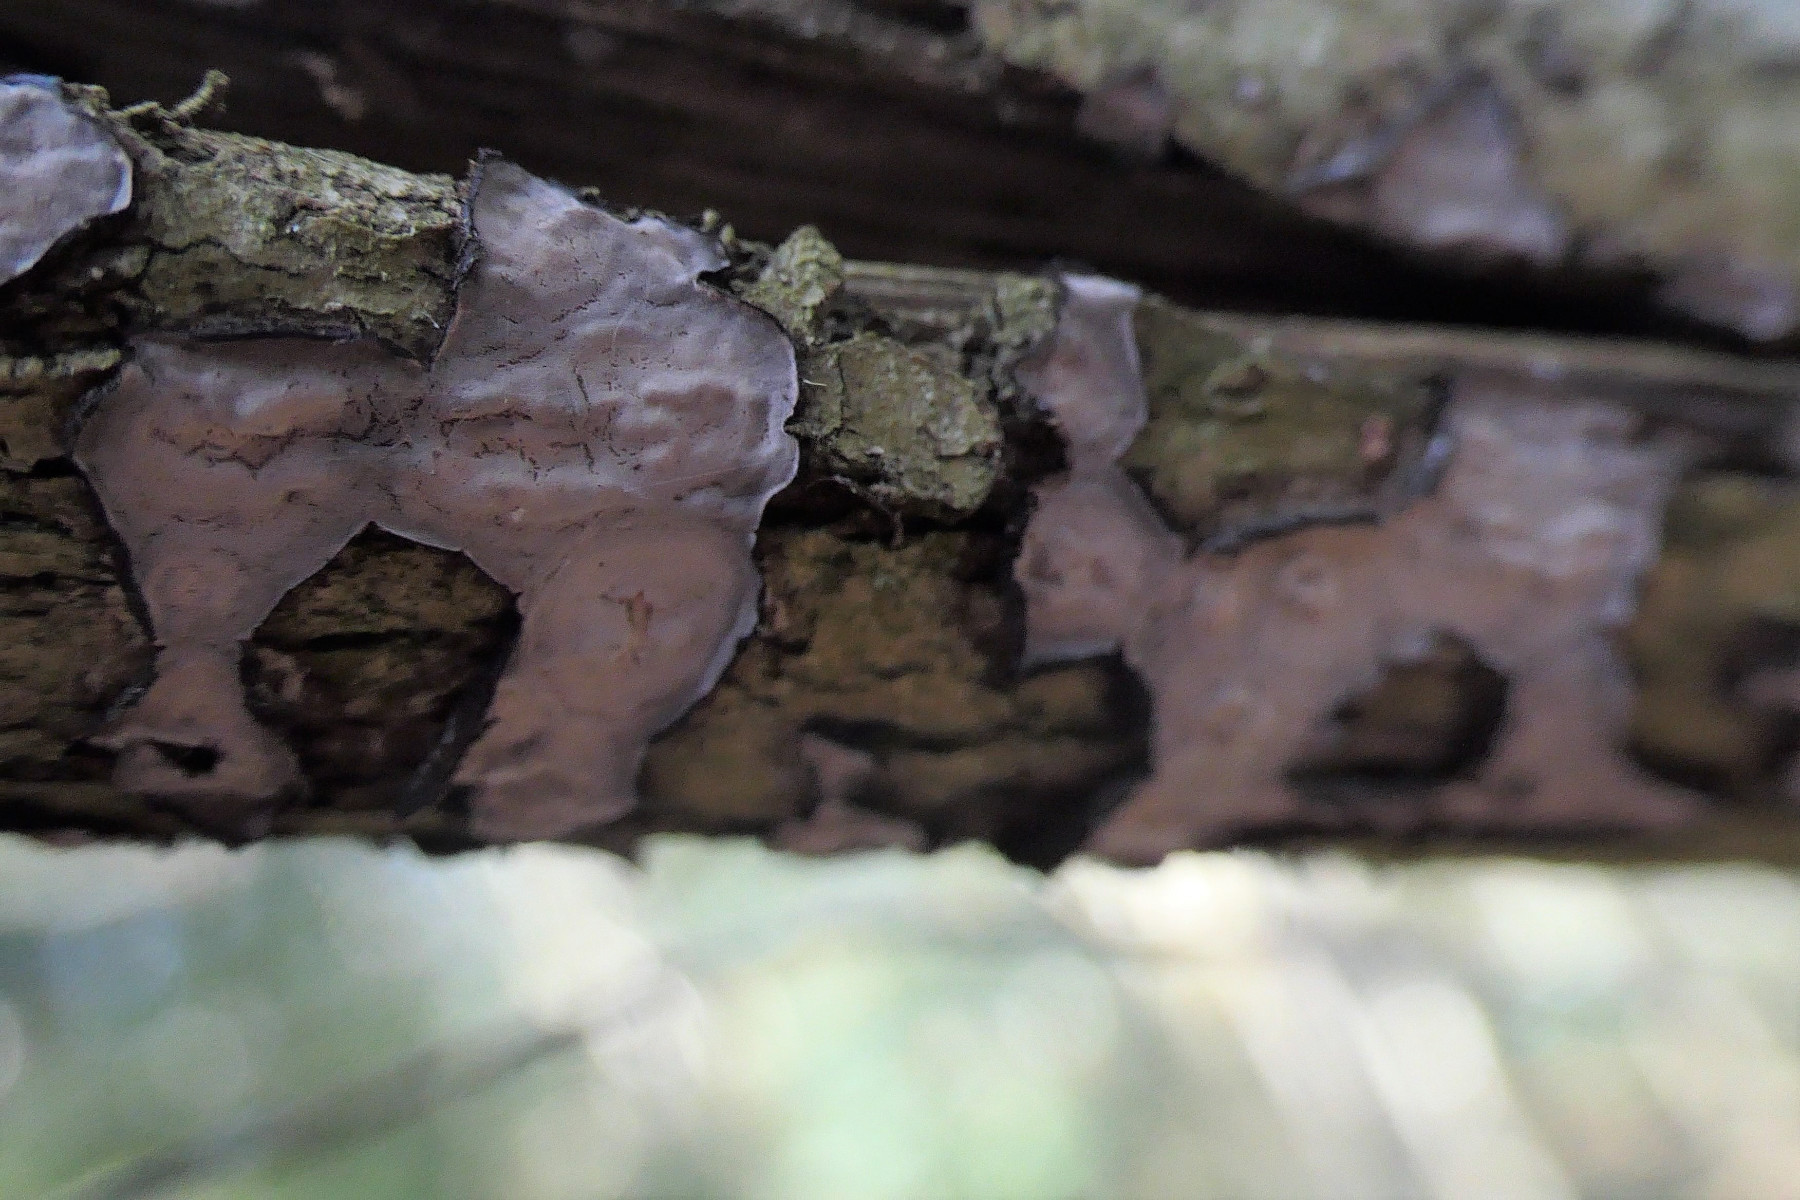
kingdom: Fungi
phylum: Basidiomycota
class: Agaricomycetes
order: Russulales
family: Peniophoraceae
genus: Peniophora
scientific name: Peniophora quercina
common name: ege-voksskind
